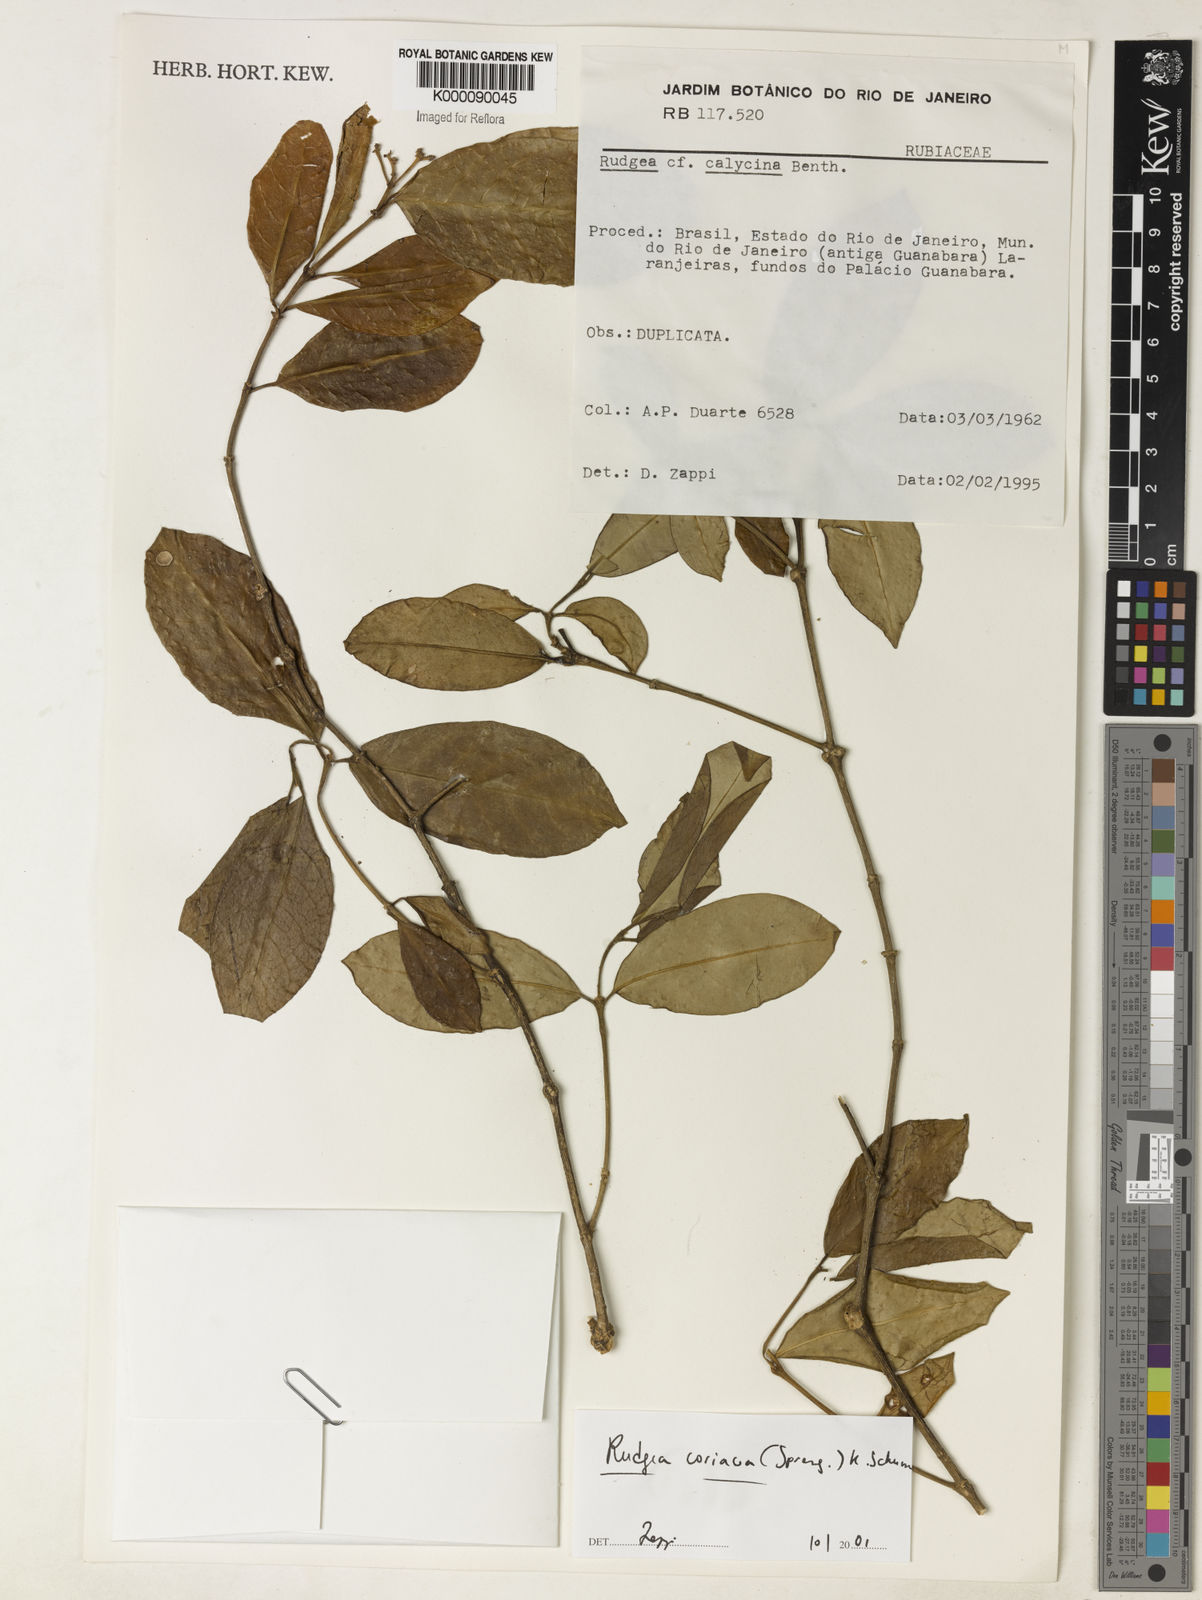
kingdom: Plantae
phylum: Tracheophyta
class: Magnoliopsida
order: Gentianales
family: Rubiaceae
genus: Rudgea
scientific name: Rudgea coriacea
